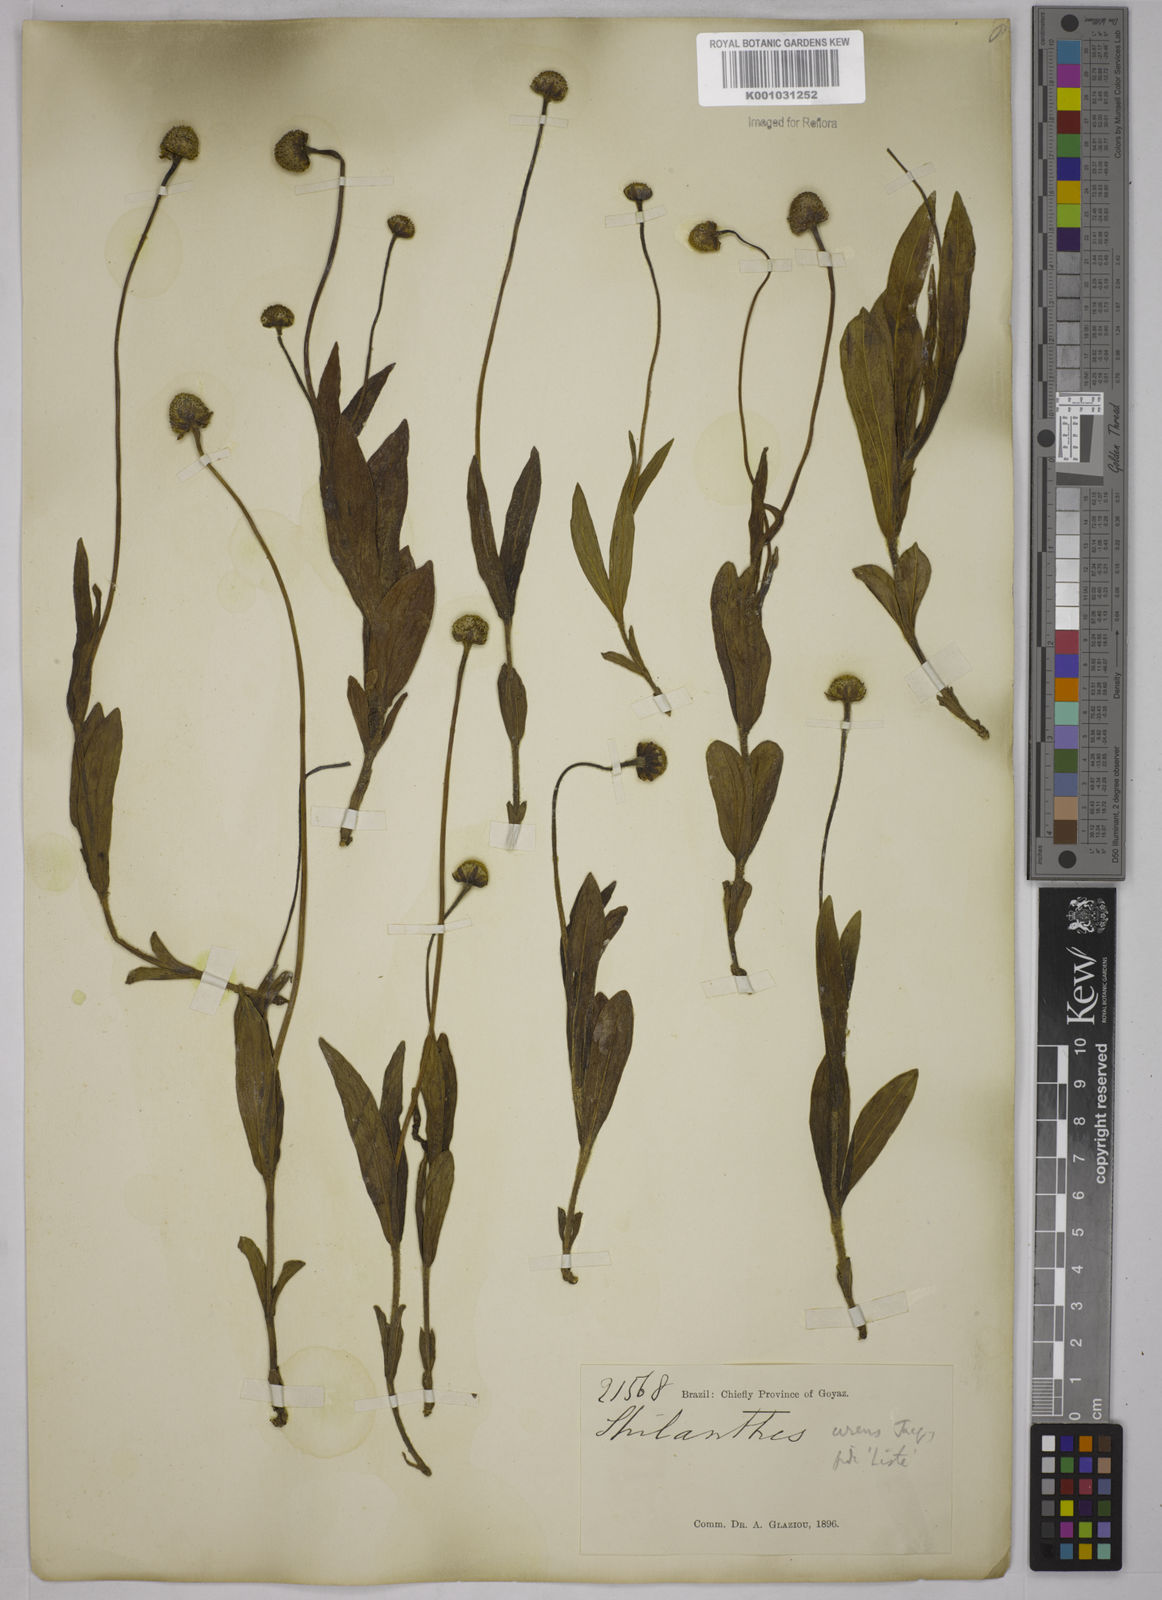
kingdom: Plantae
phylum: Tracheophyta
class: Magnoliopsida
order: Asterales
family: Asteraceae
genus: Spilanthes
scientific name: Spilanthes urens
